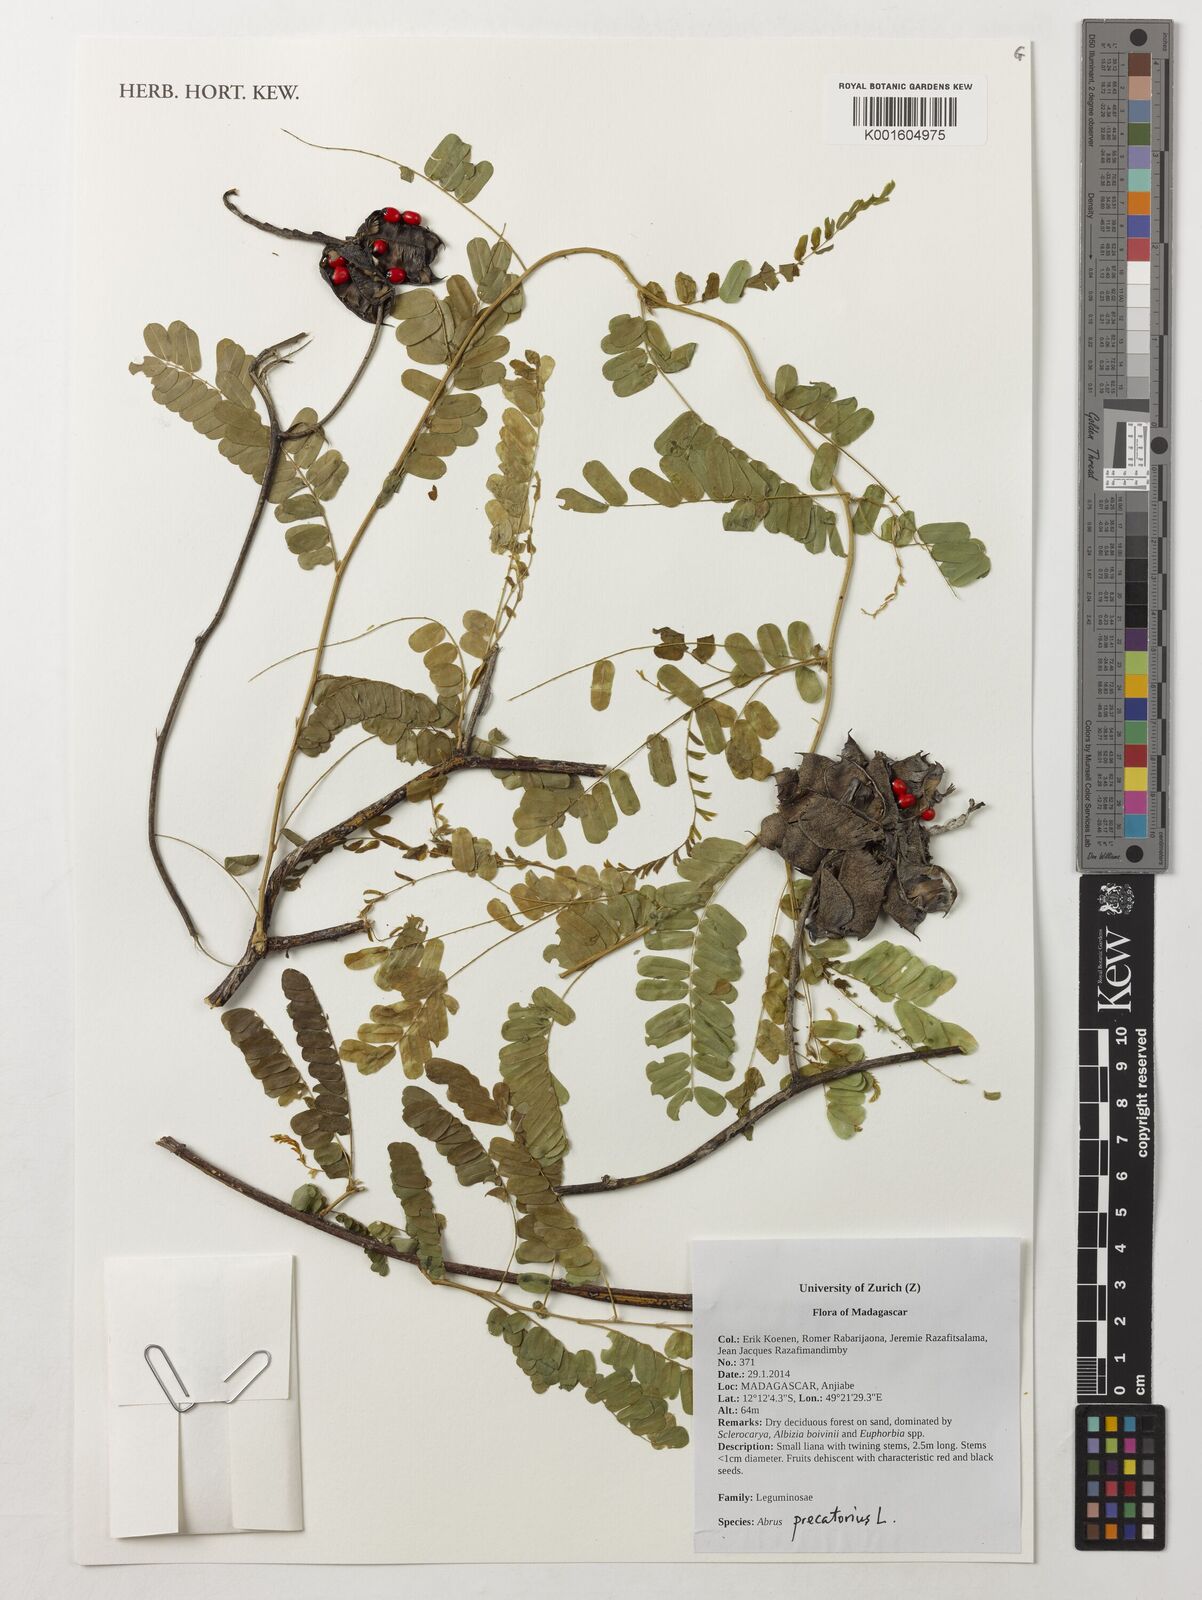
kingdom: Plantae
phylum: Tracheophyta
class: Magnoliopsida
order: Fabales
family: Fabaceae
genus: Abrus
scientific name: Abrus precatorius
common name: Rosarypea
